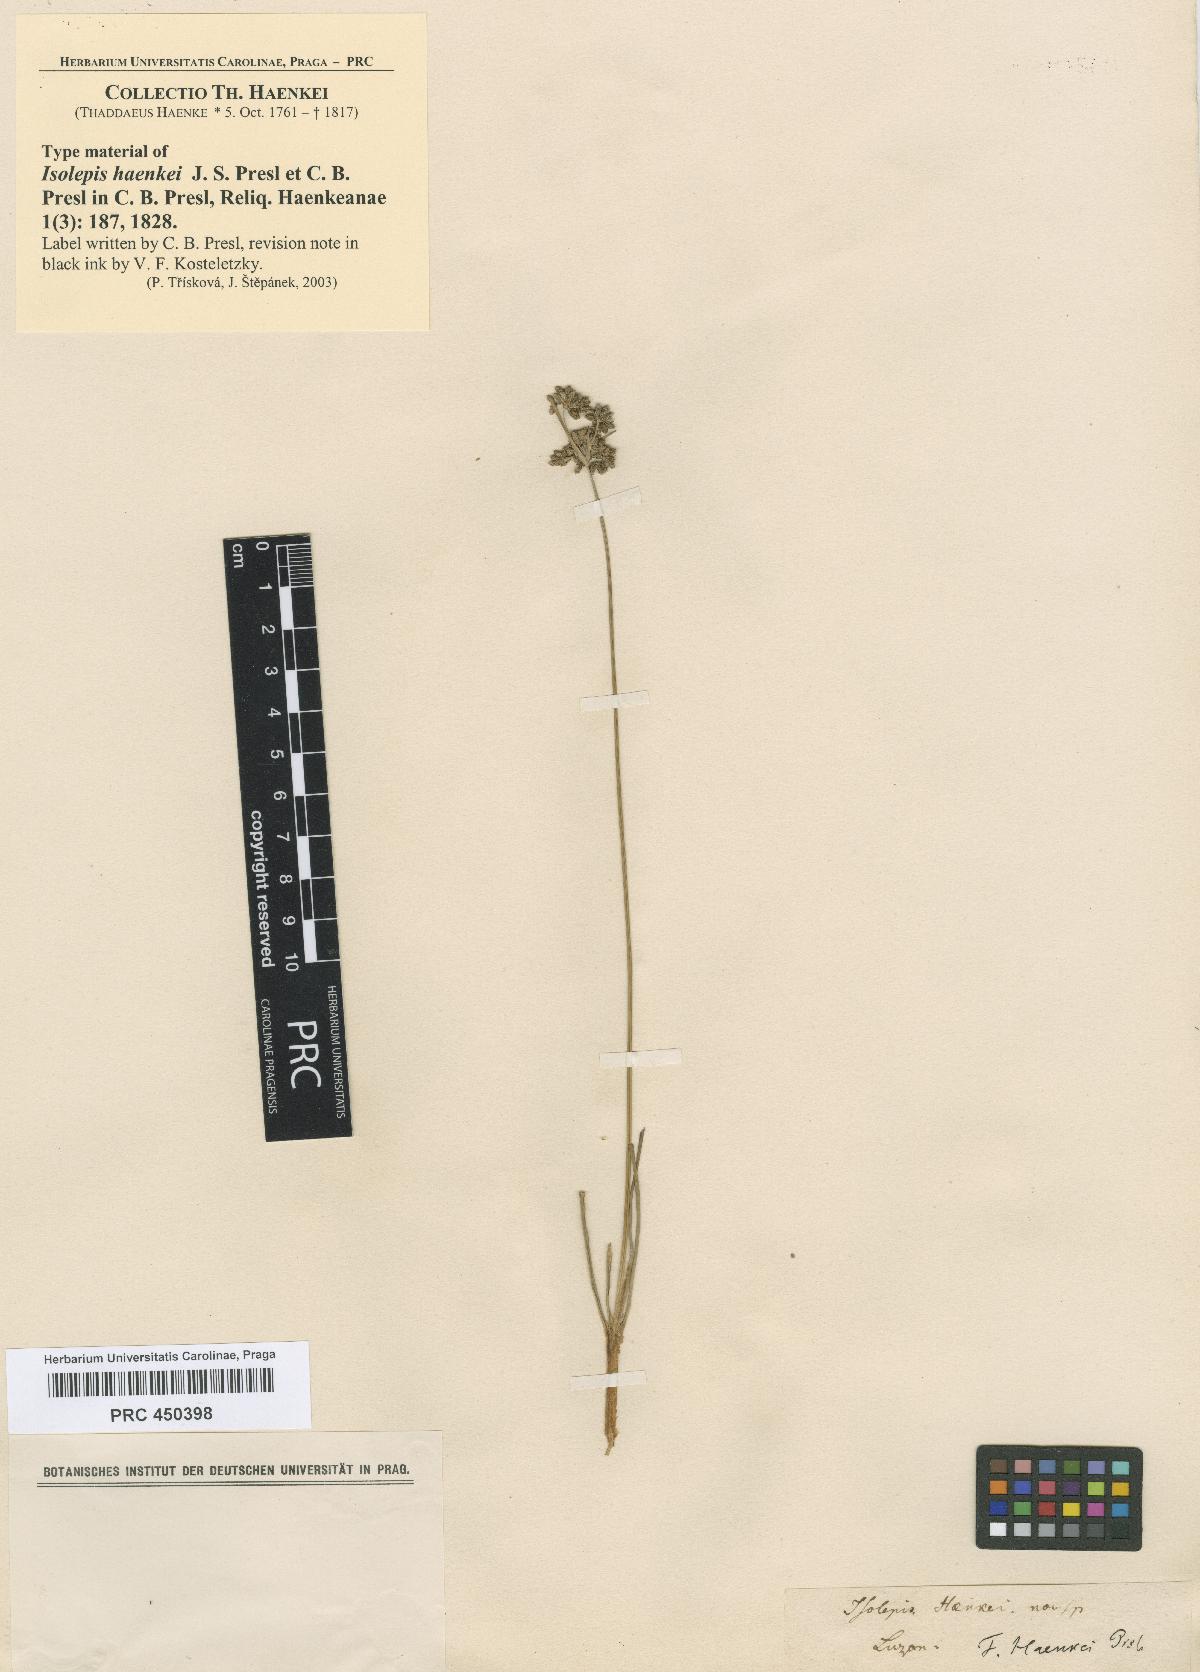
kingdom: Plantae
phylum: Tracheophyta
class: Liliopsida
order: Poales
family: Cyperaceae
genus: Fimbristylis
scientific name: Fimbristylis cymosa
